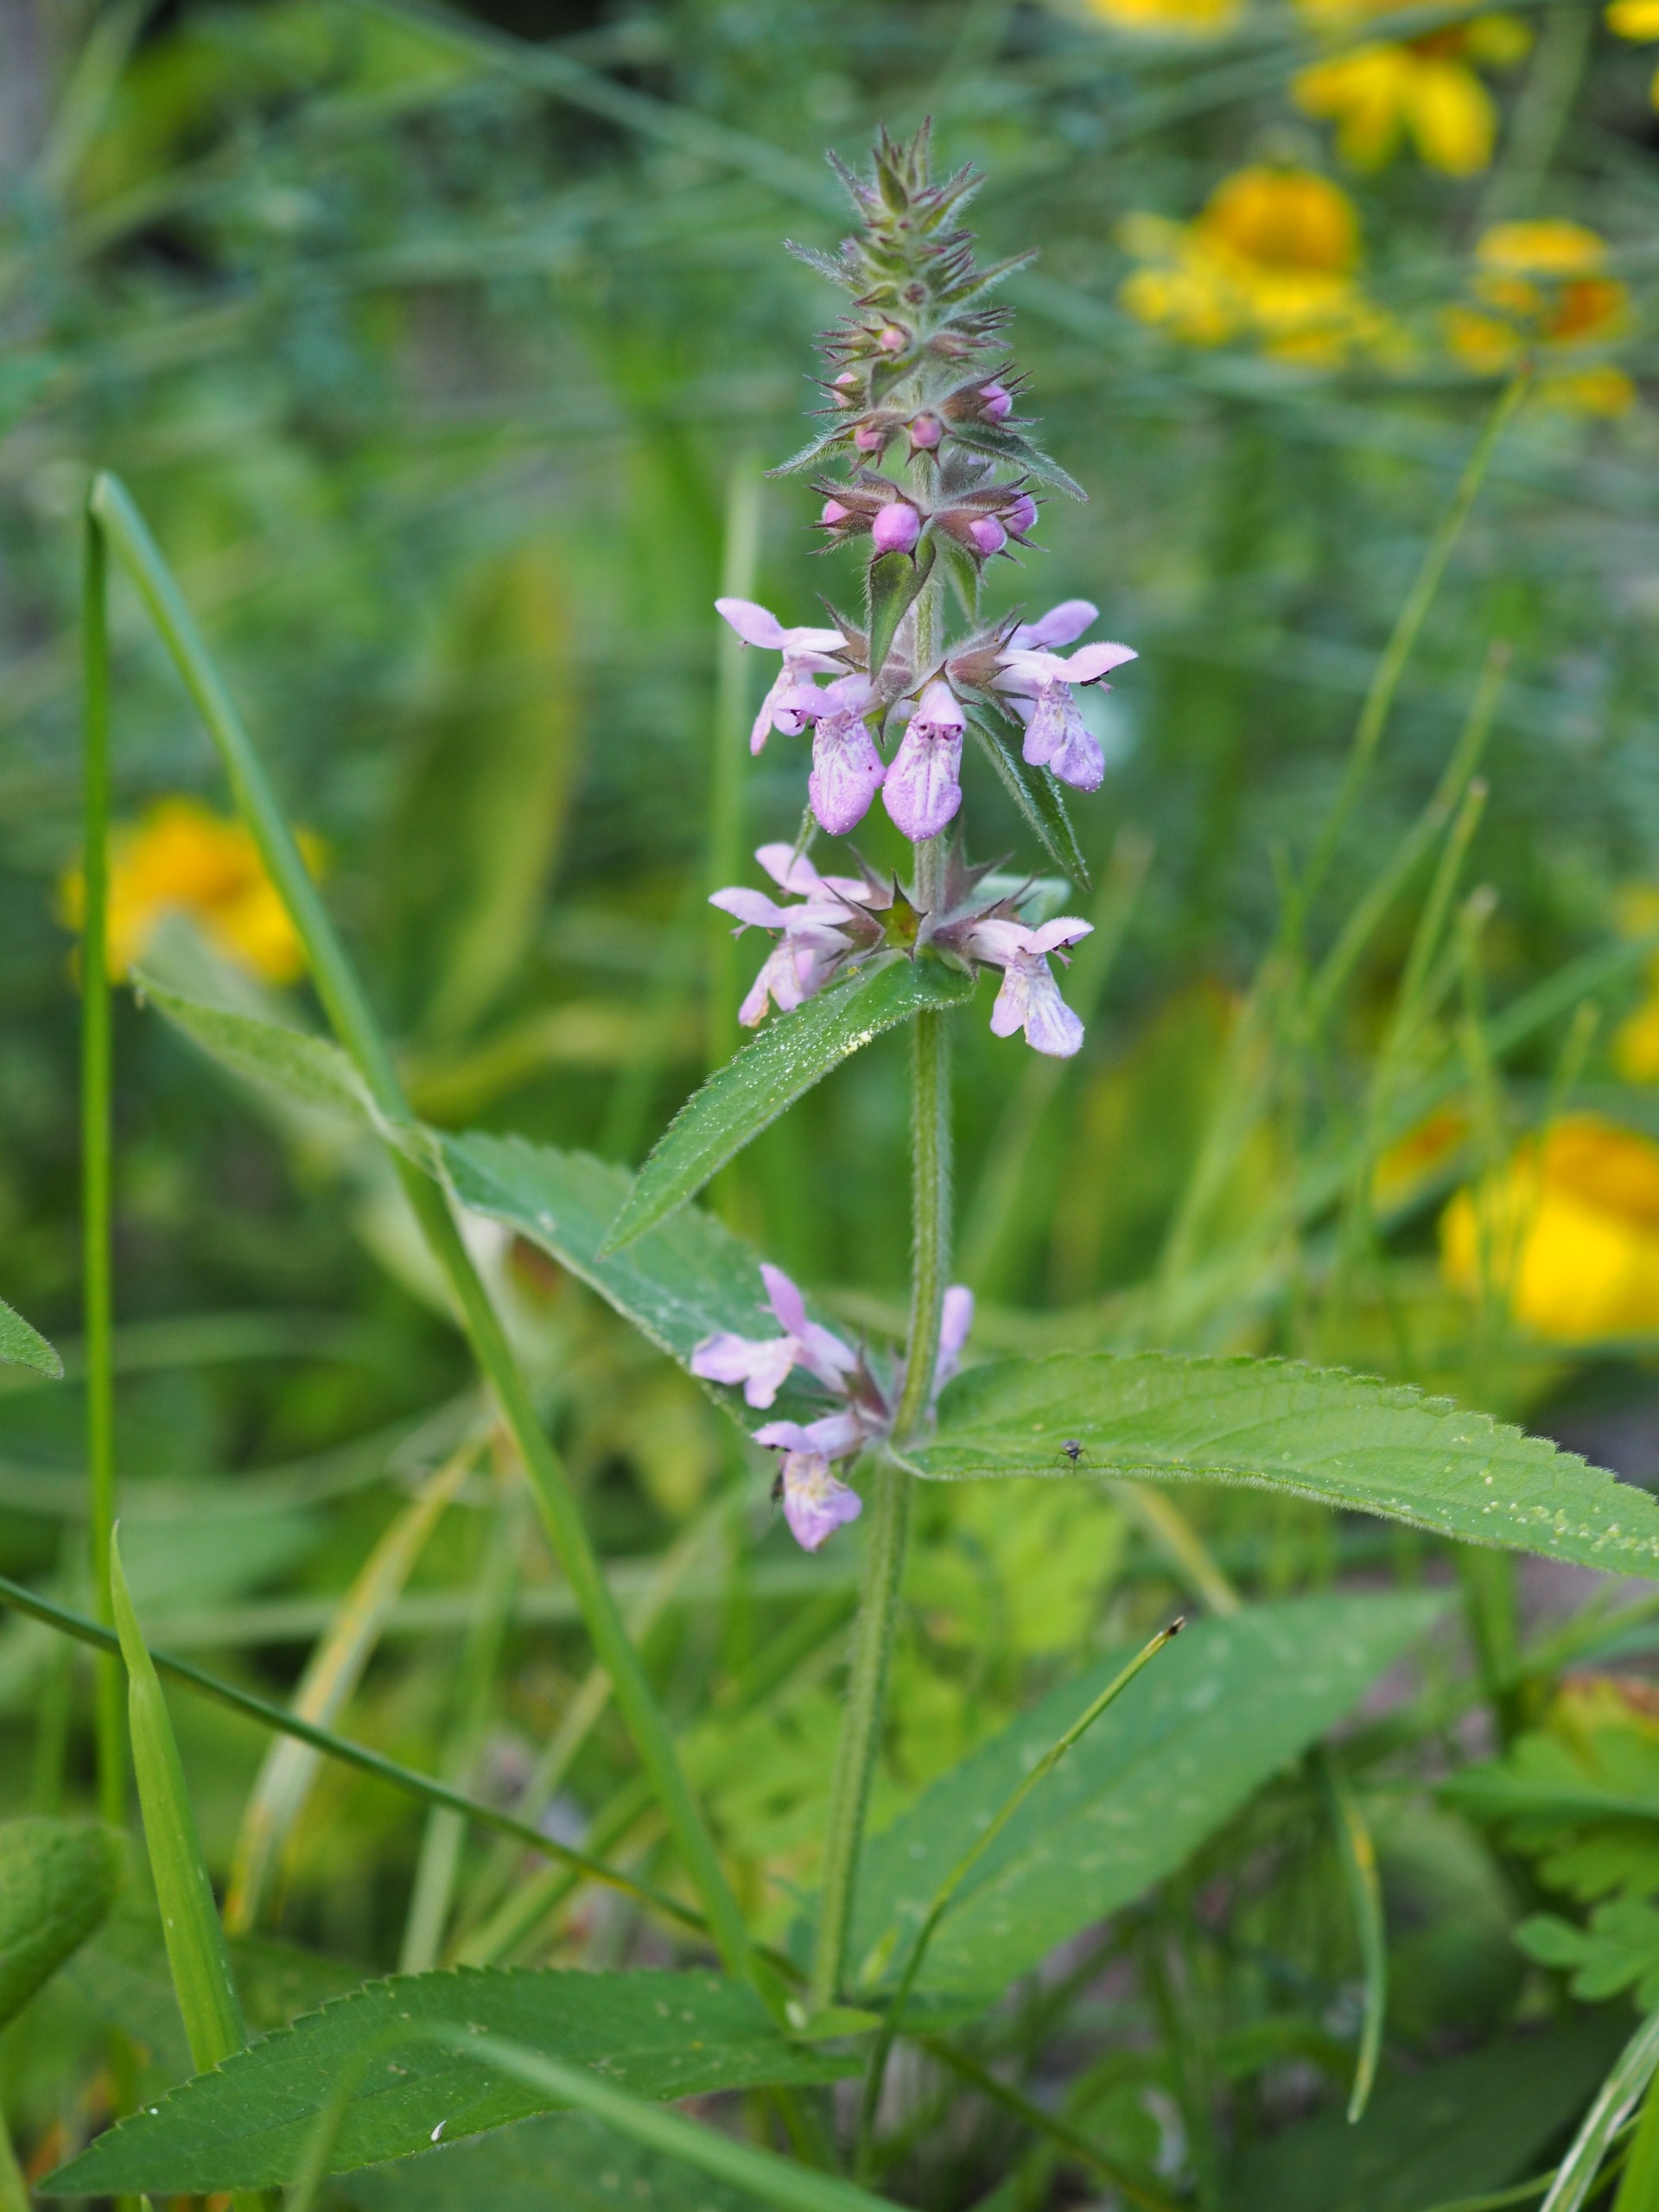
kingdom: Plantae
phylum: Tracheophyta
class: Magnoliopsida
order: Lamiales
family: Lamiaceae
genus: Stachys
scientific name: Stachys palustris
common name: Kær-galtetand
